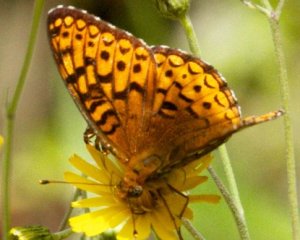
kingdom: Animalia
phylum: Arthropoda
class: Insecta
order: Lepidoptera
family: Nymphalidae
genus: Speyeria
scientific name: Speyeria atlantis
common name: Atlantis Fritillary
